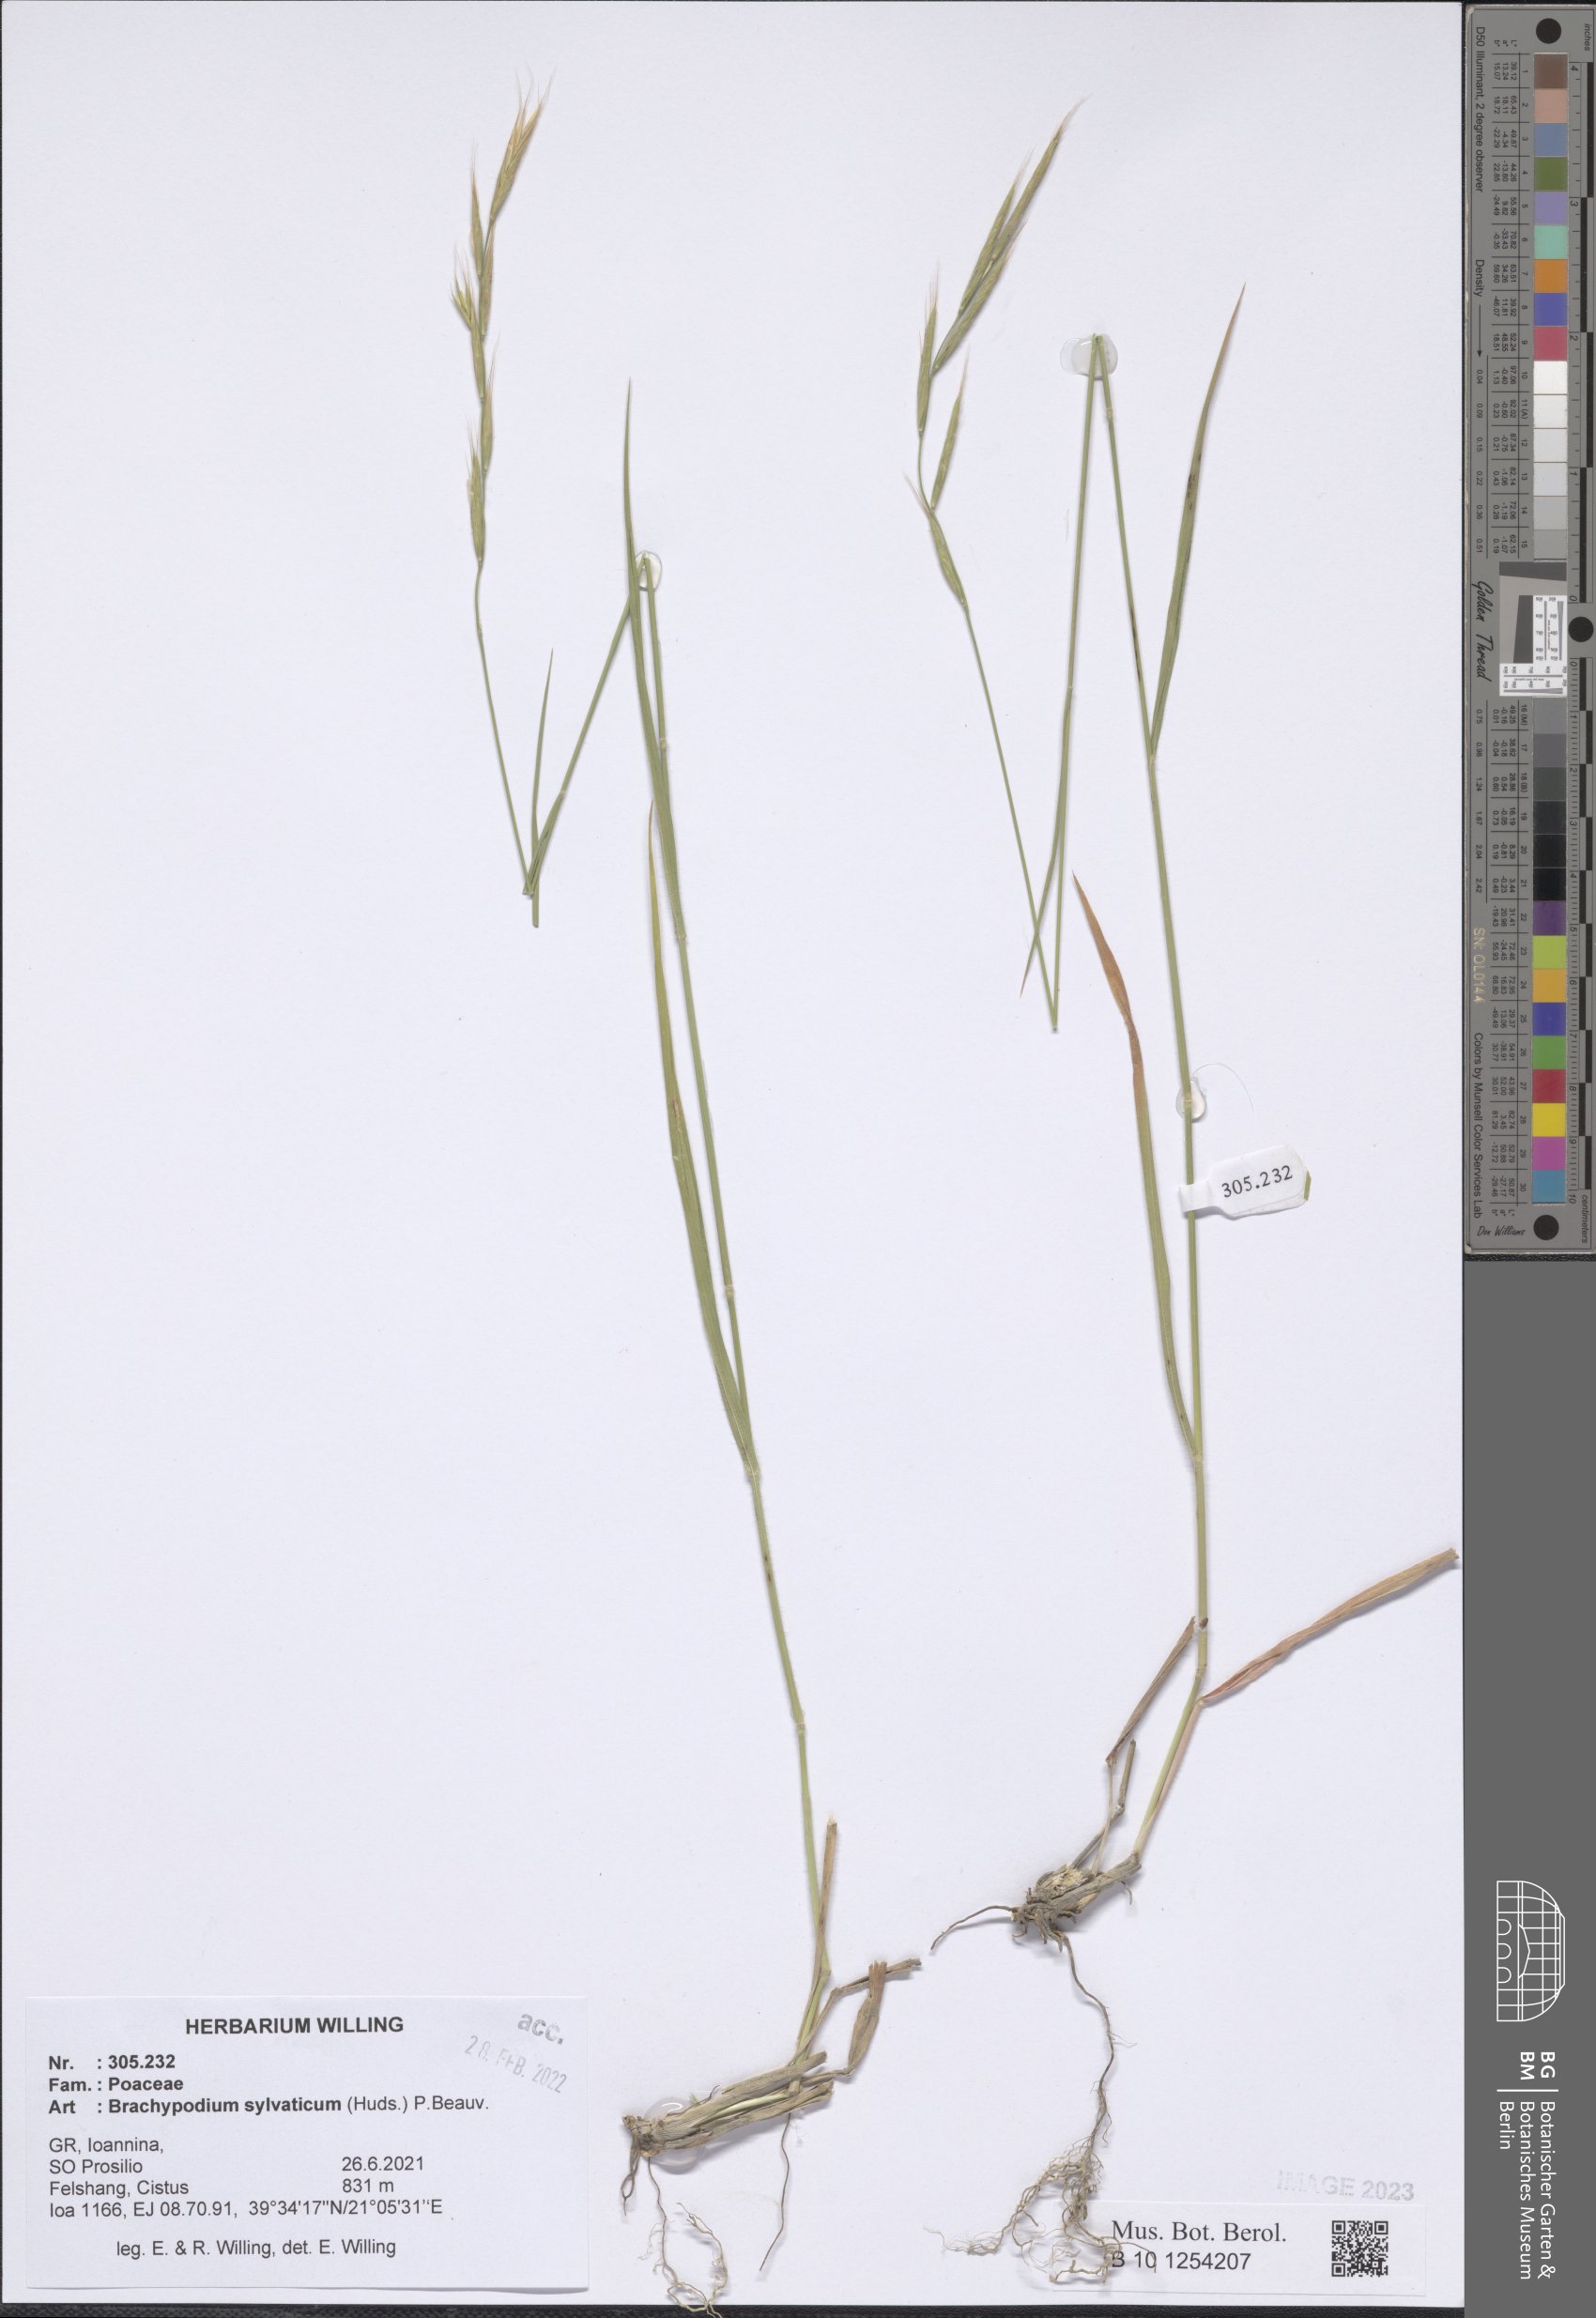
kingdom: Plantae
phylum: Tracheophyta
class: Liliopsida
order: Poales
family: Poaceae
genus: Brachypodium
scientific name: Brachypodium sylvaticum
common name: False-brome
